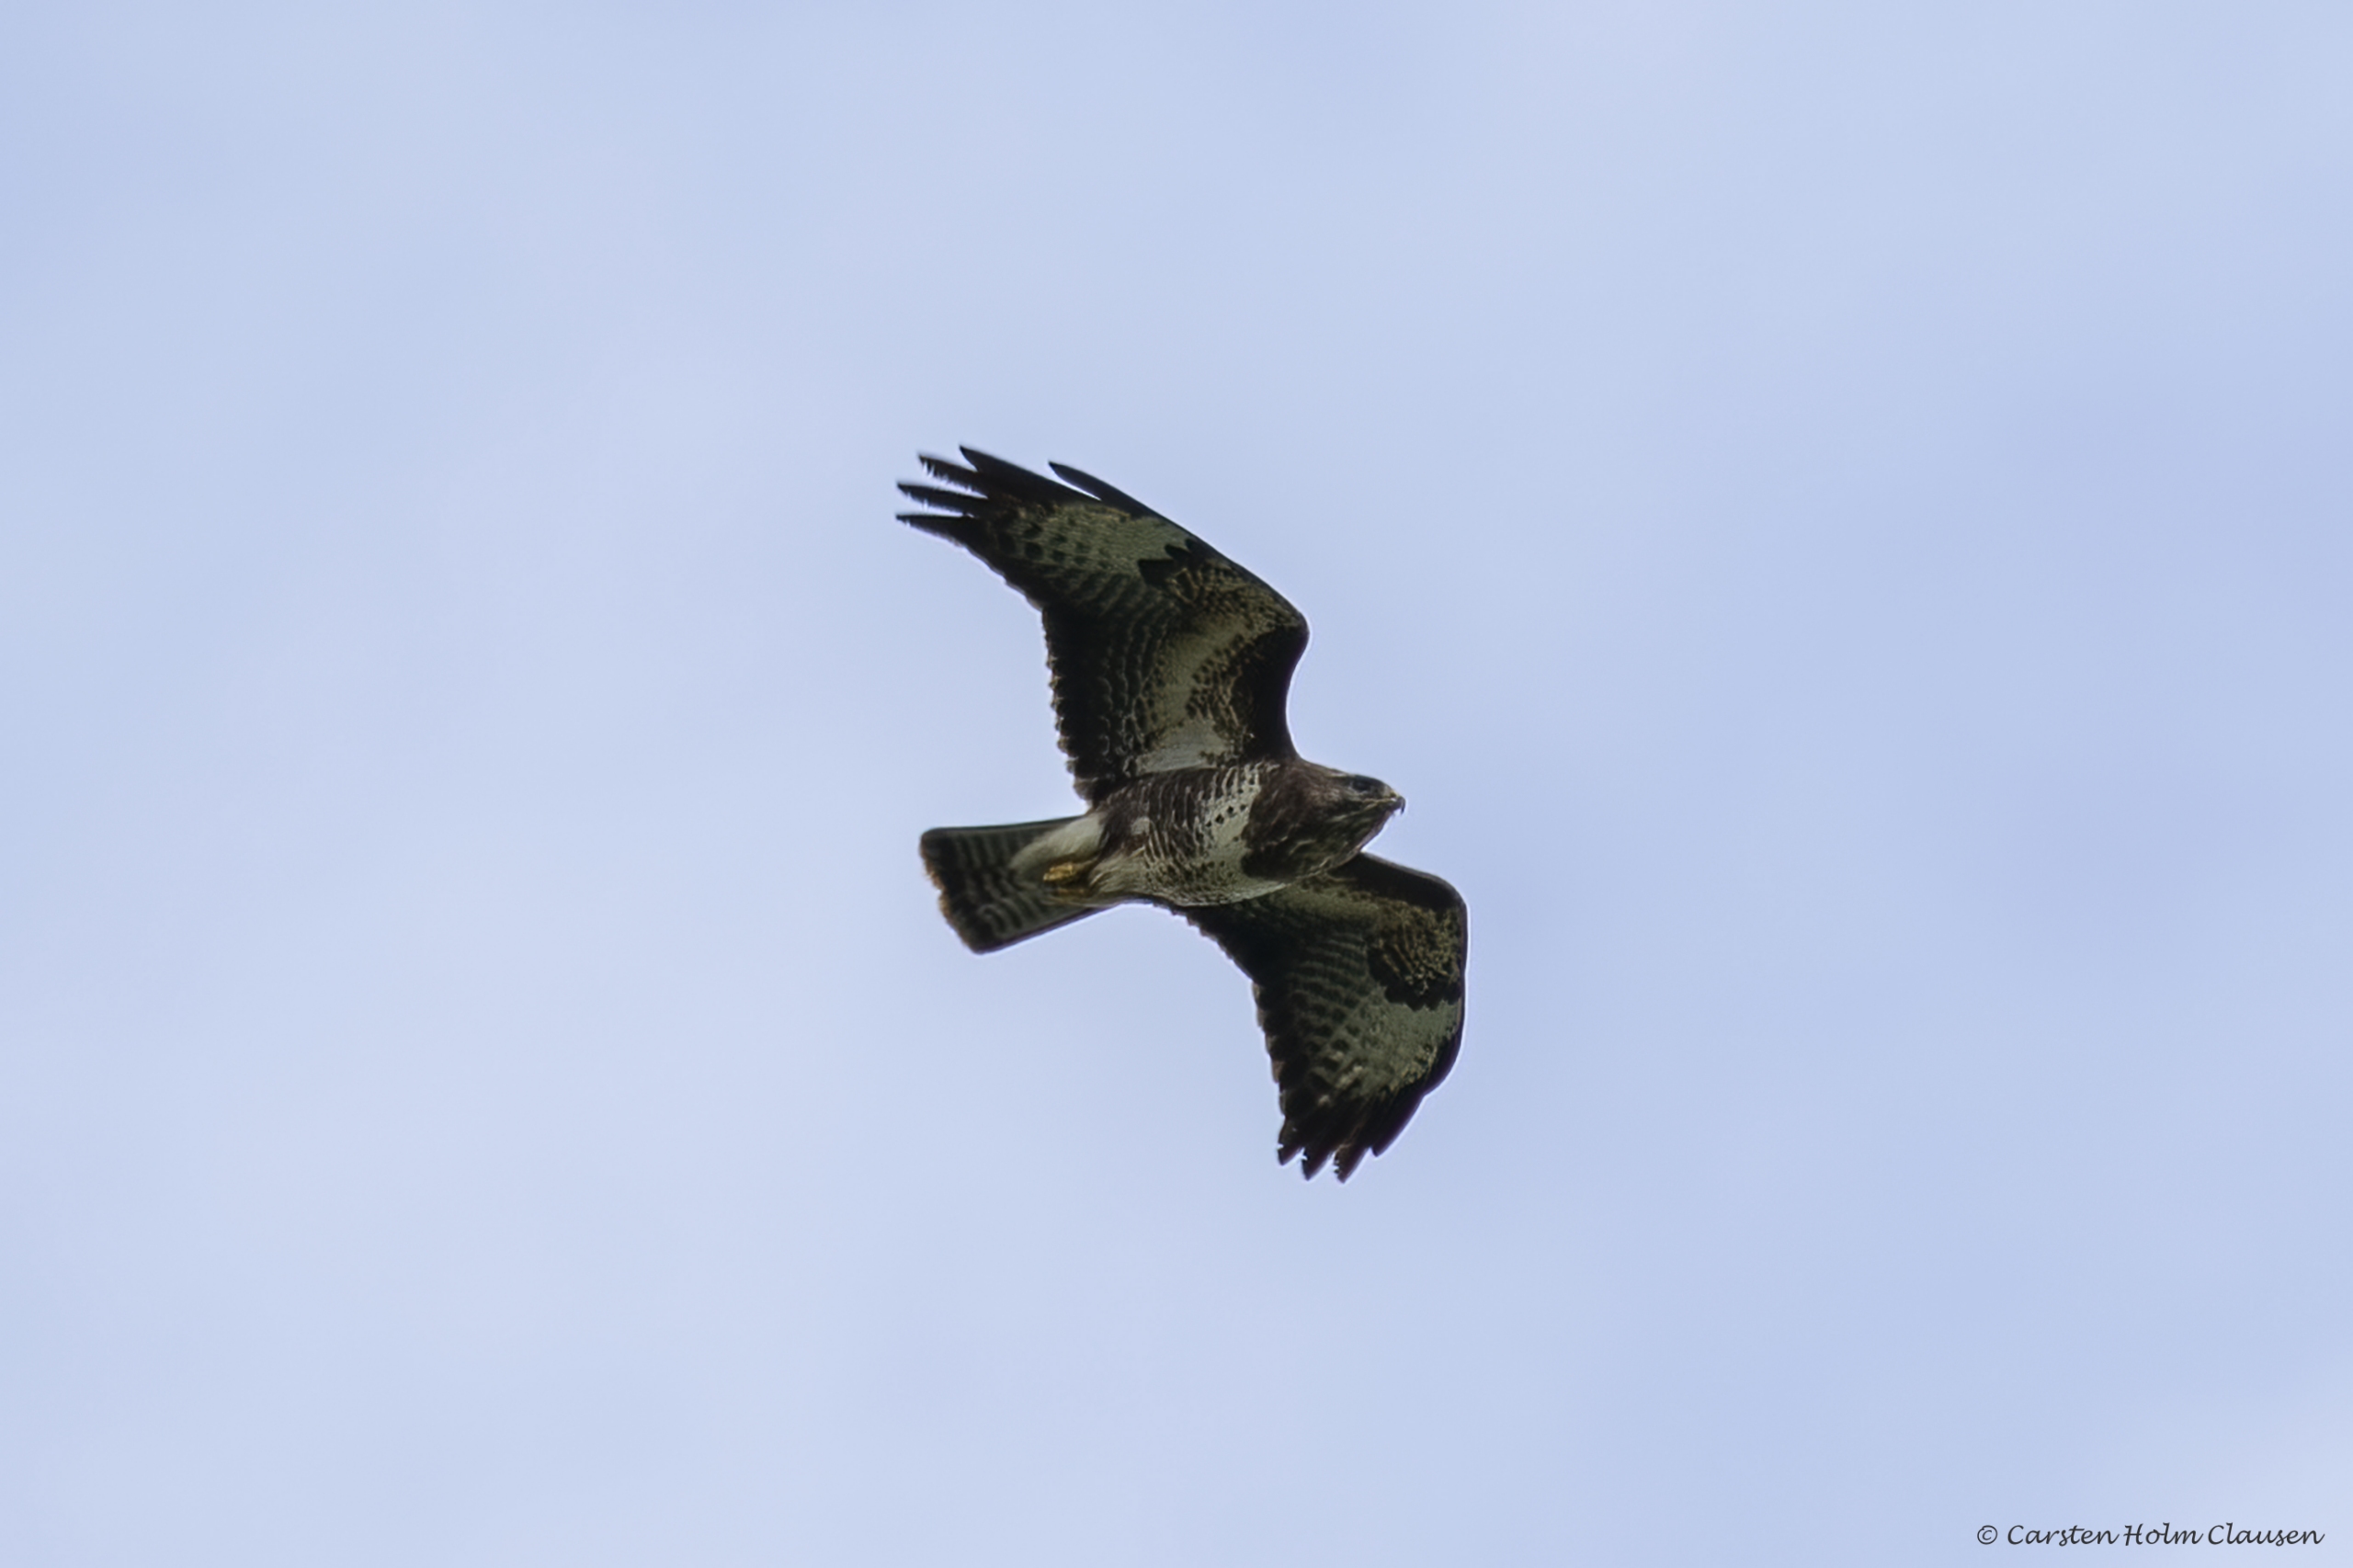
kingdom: Animalia
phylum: Chordata
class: Aves
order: Accipitriformes
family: Accipitridae
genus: Buteo
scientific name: Buteo buteo
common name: Musvåge
